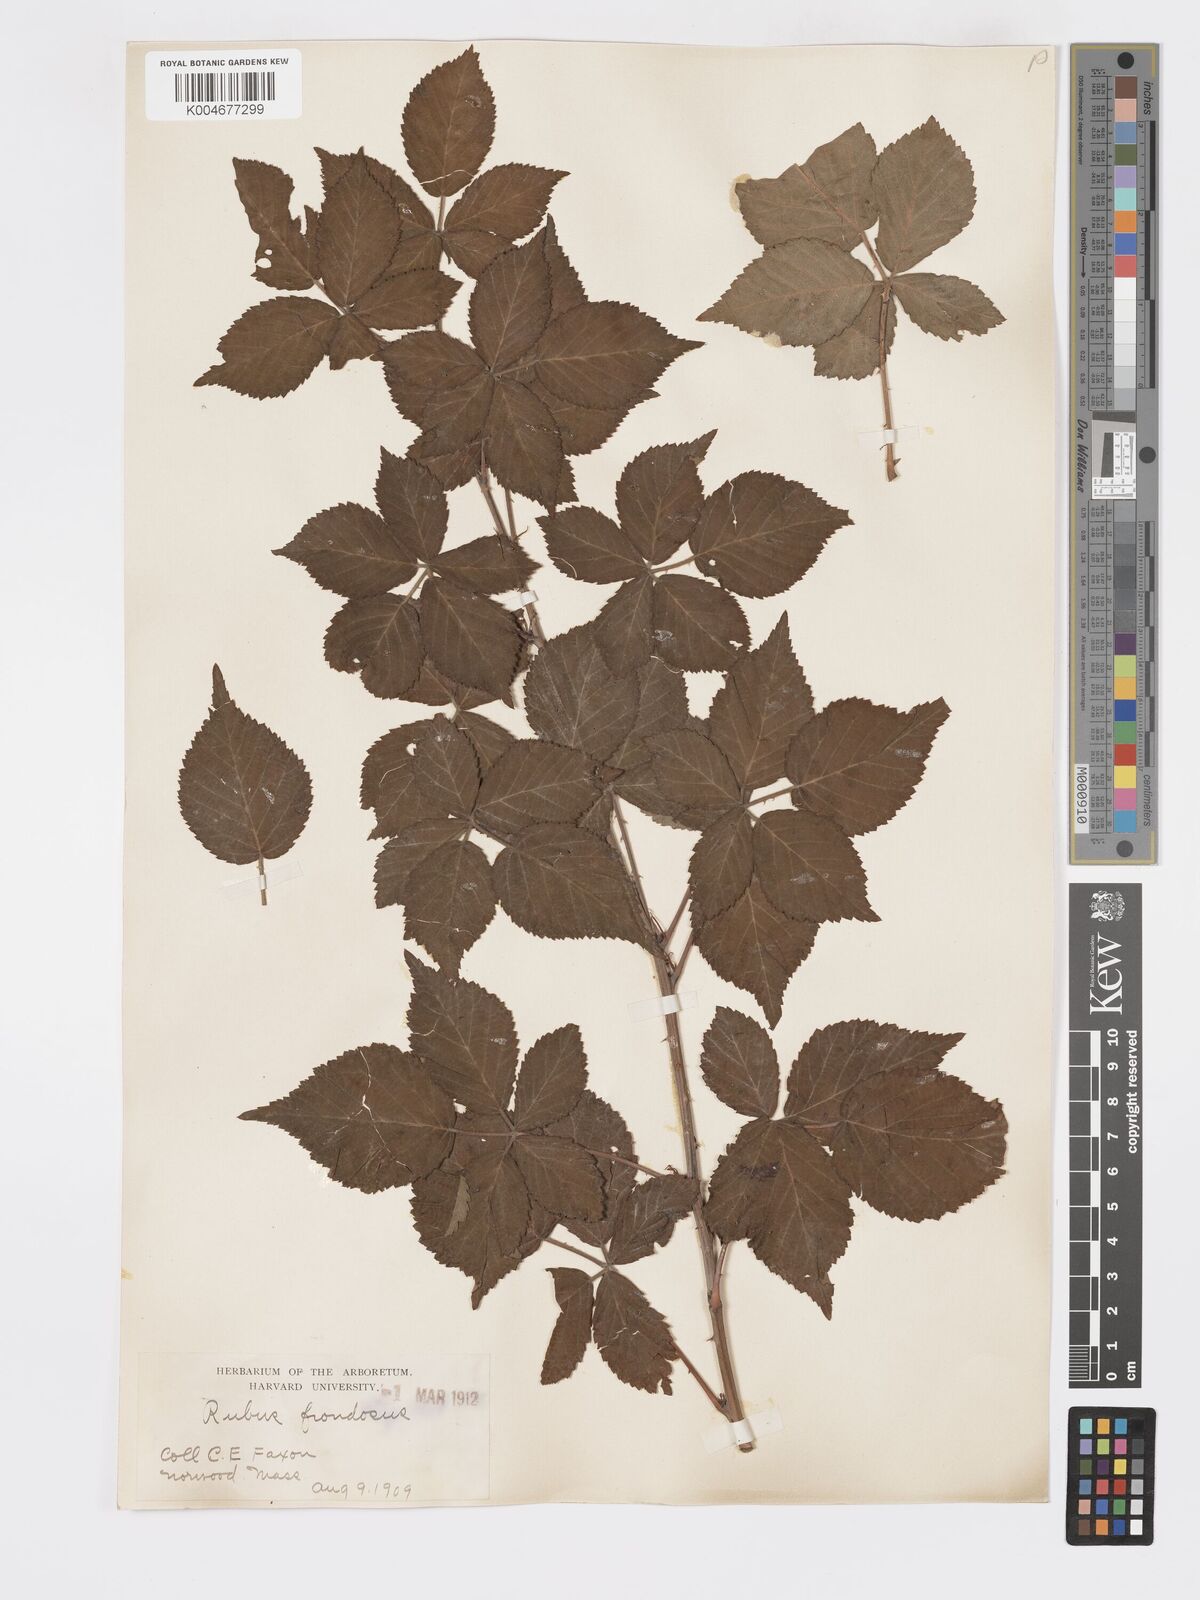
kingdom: Plantae
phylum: Tracheophyta
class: Magnoliopsida
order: Rosales
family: Rosaceae
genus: Rubus
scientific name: Rubus frondosus
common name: Yankee blackberry
